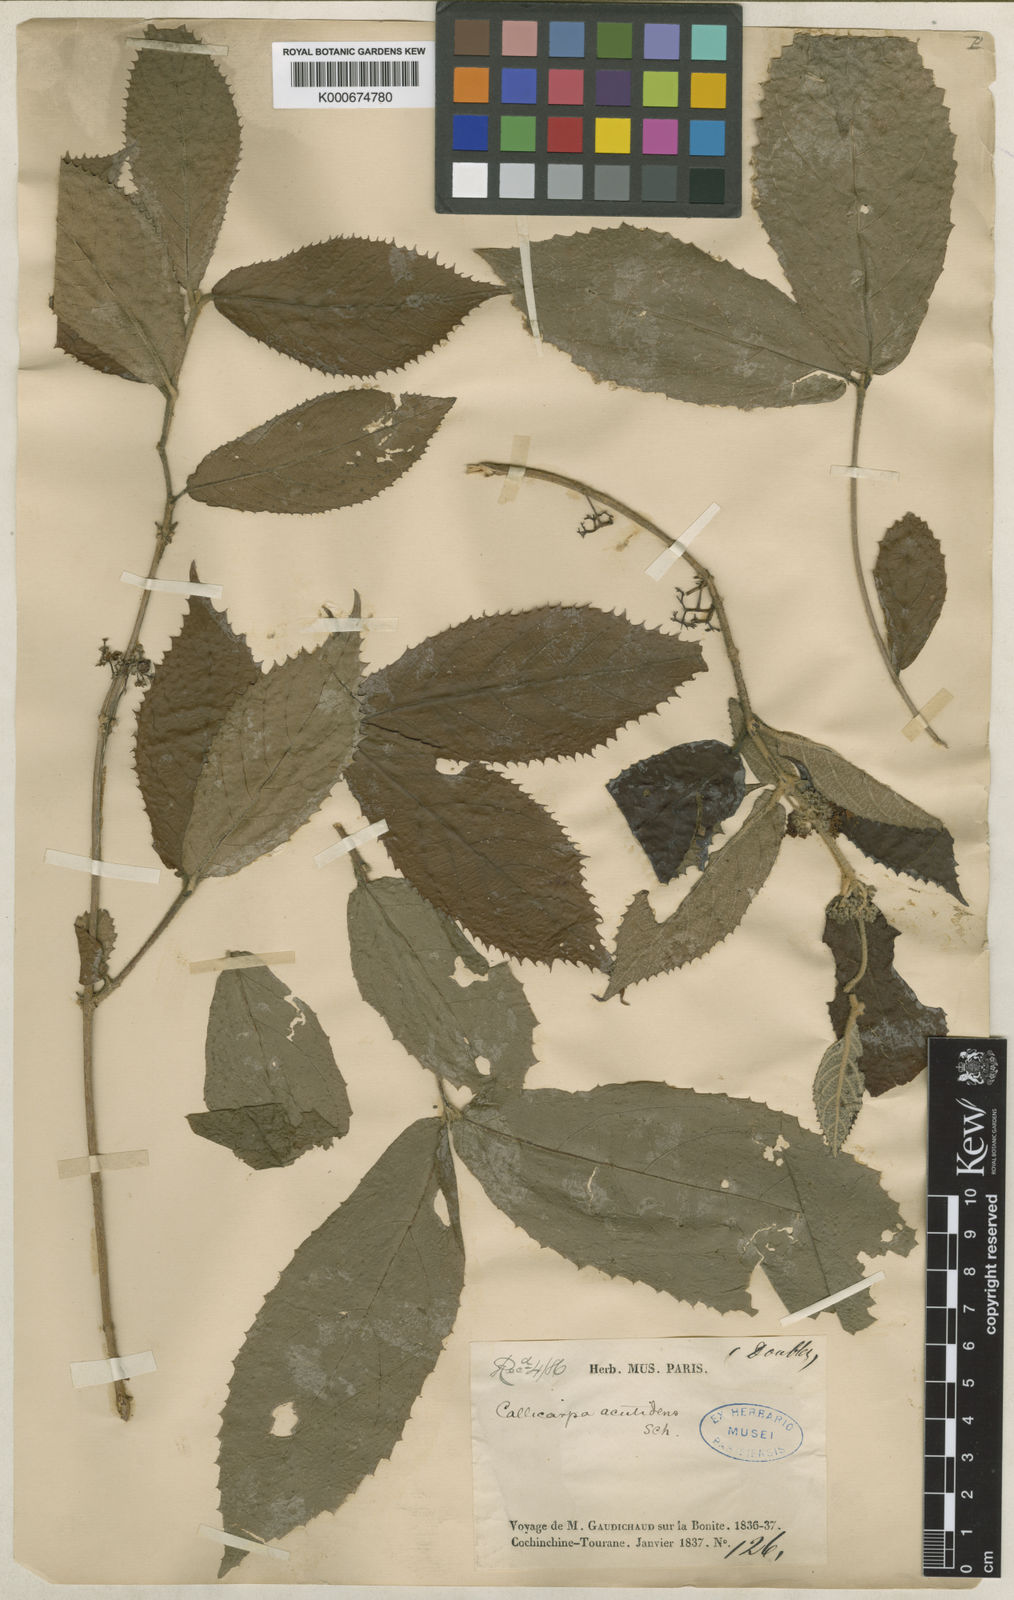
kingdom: Plantae
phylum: Tracheophyta
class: Magnoliopsida
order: Lamiales
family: Lamiaceae
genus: Callicarpa
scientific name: Callicarpa acutidens
